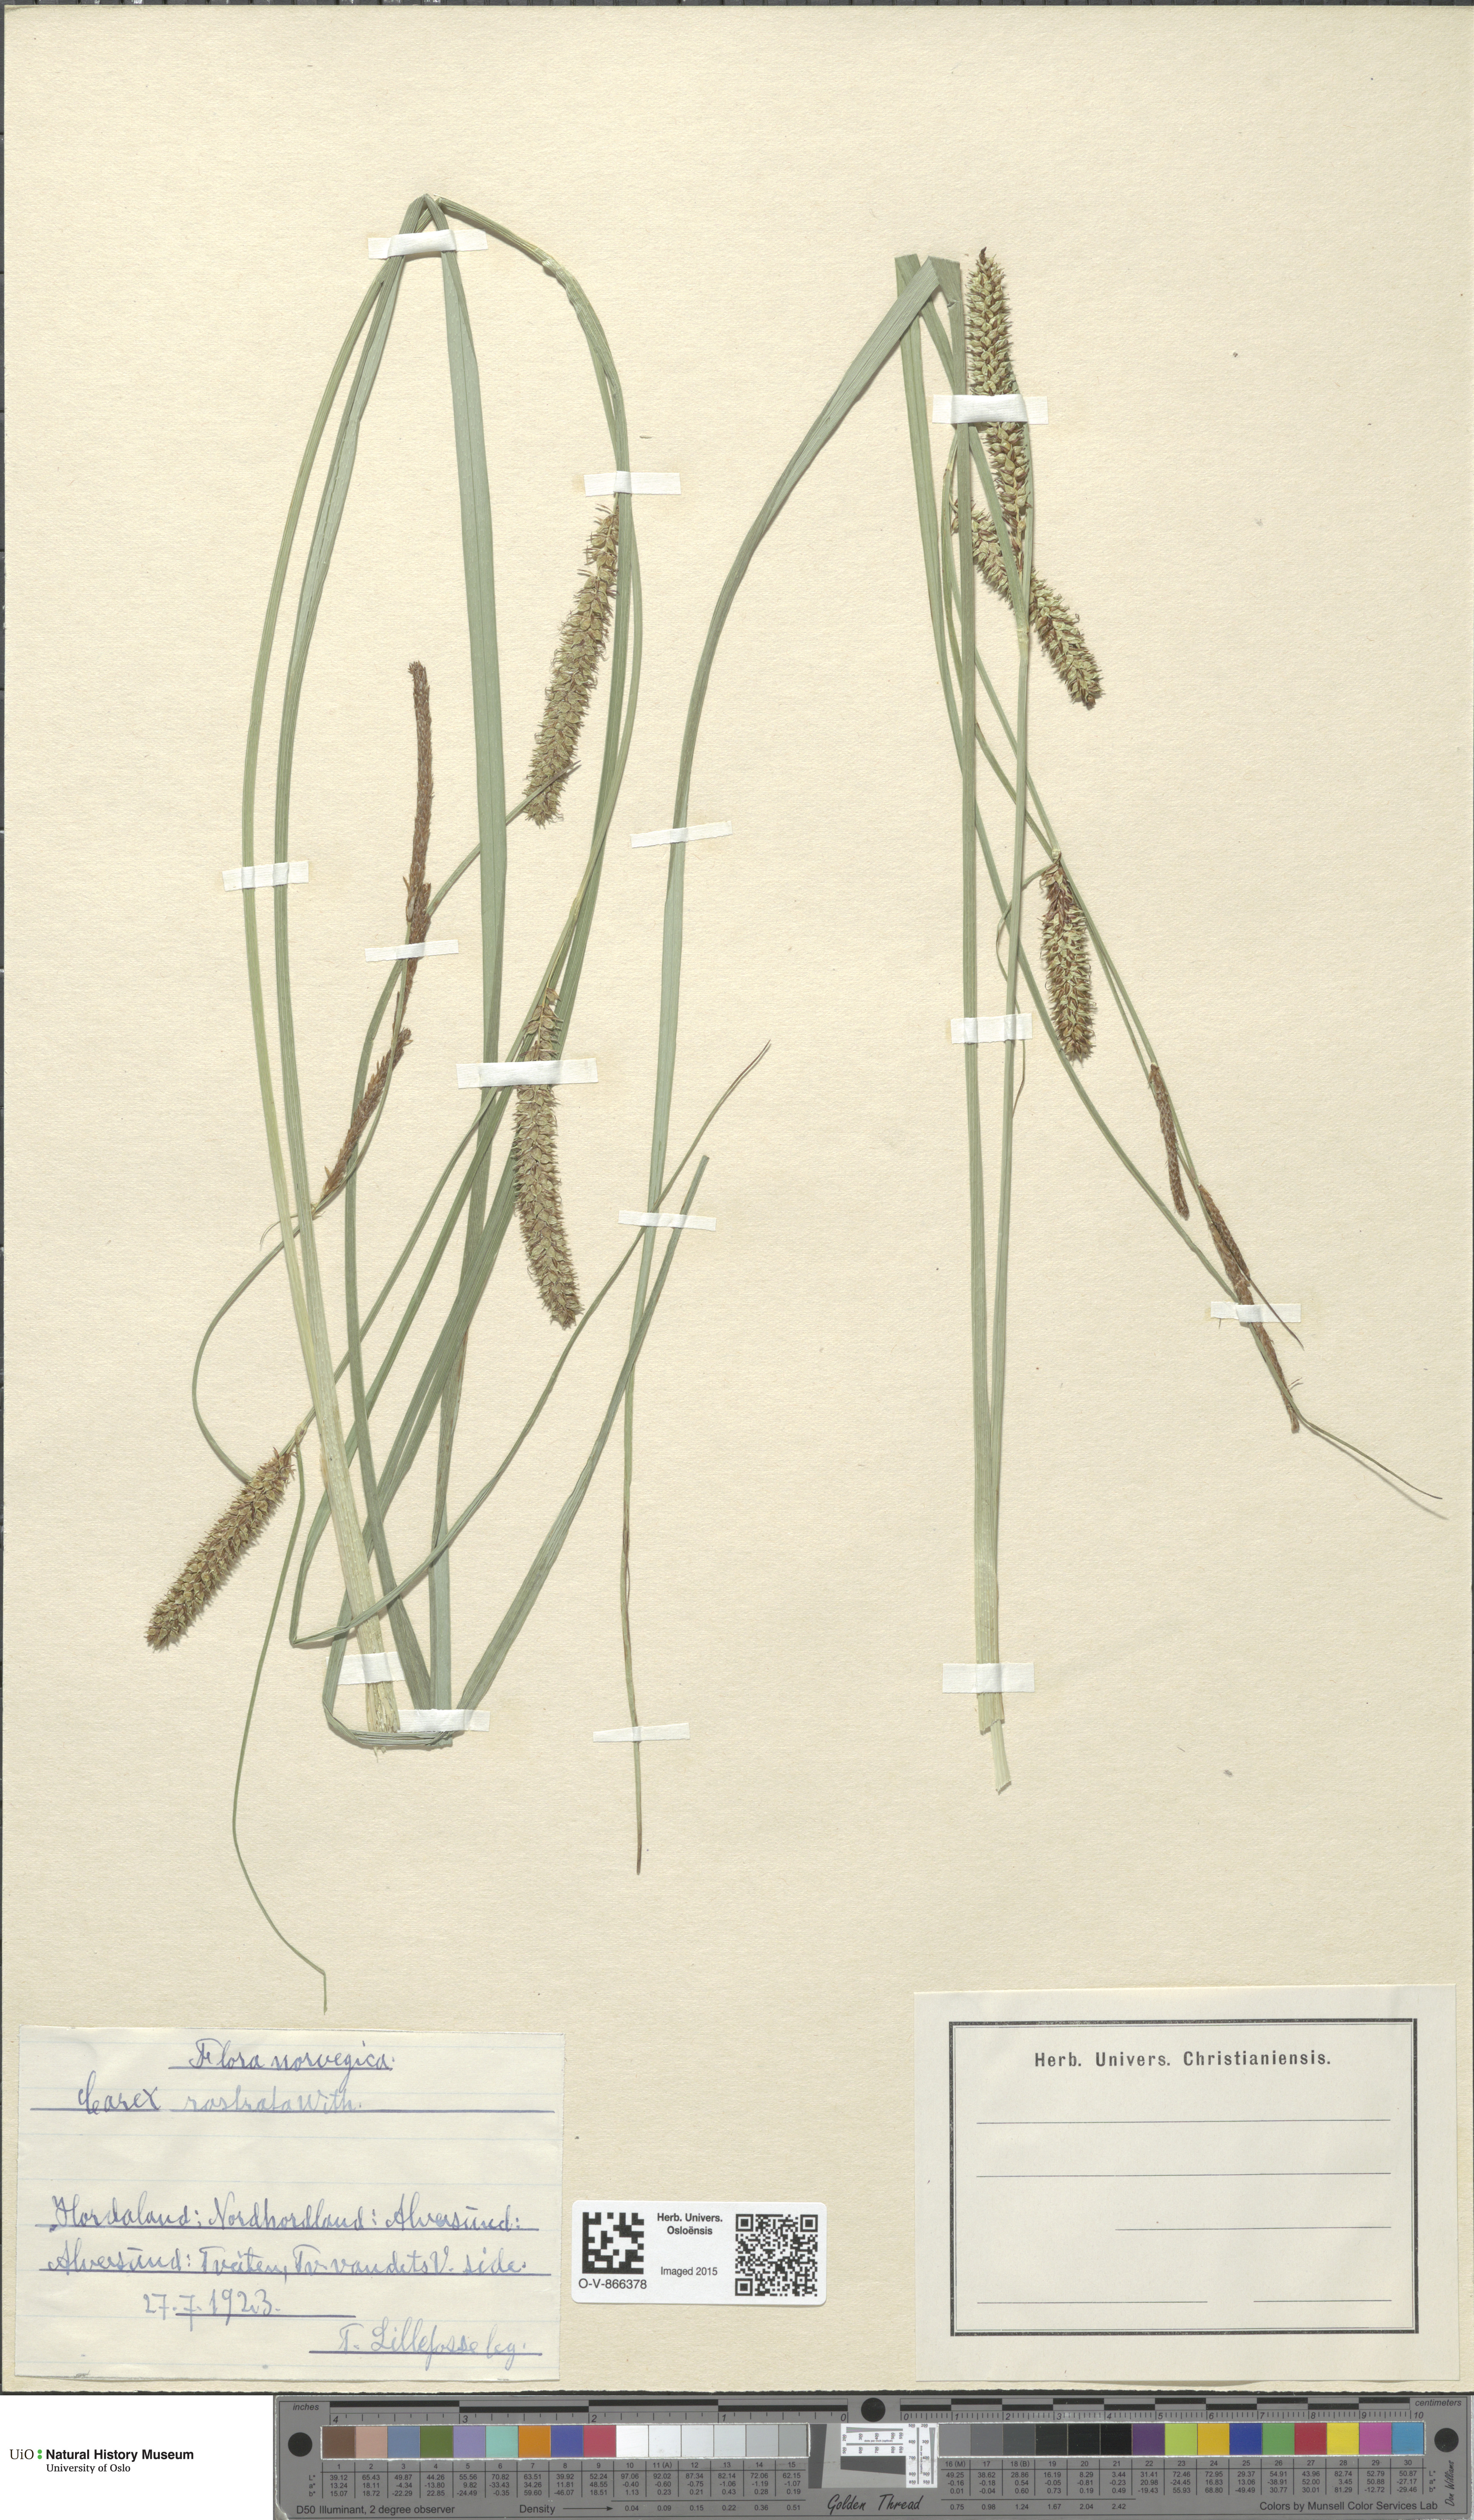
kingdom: Plantae
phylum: Tracheophyta
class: Liliopsida
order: Poales
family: Cyperaceae
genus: Carex
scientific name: Carex rostrata
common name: Bottle sedge
